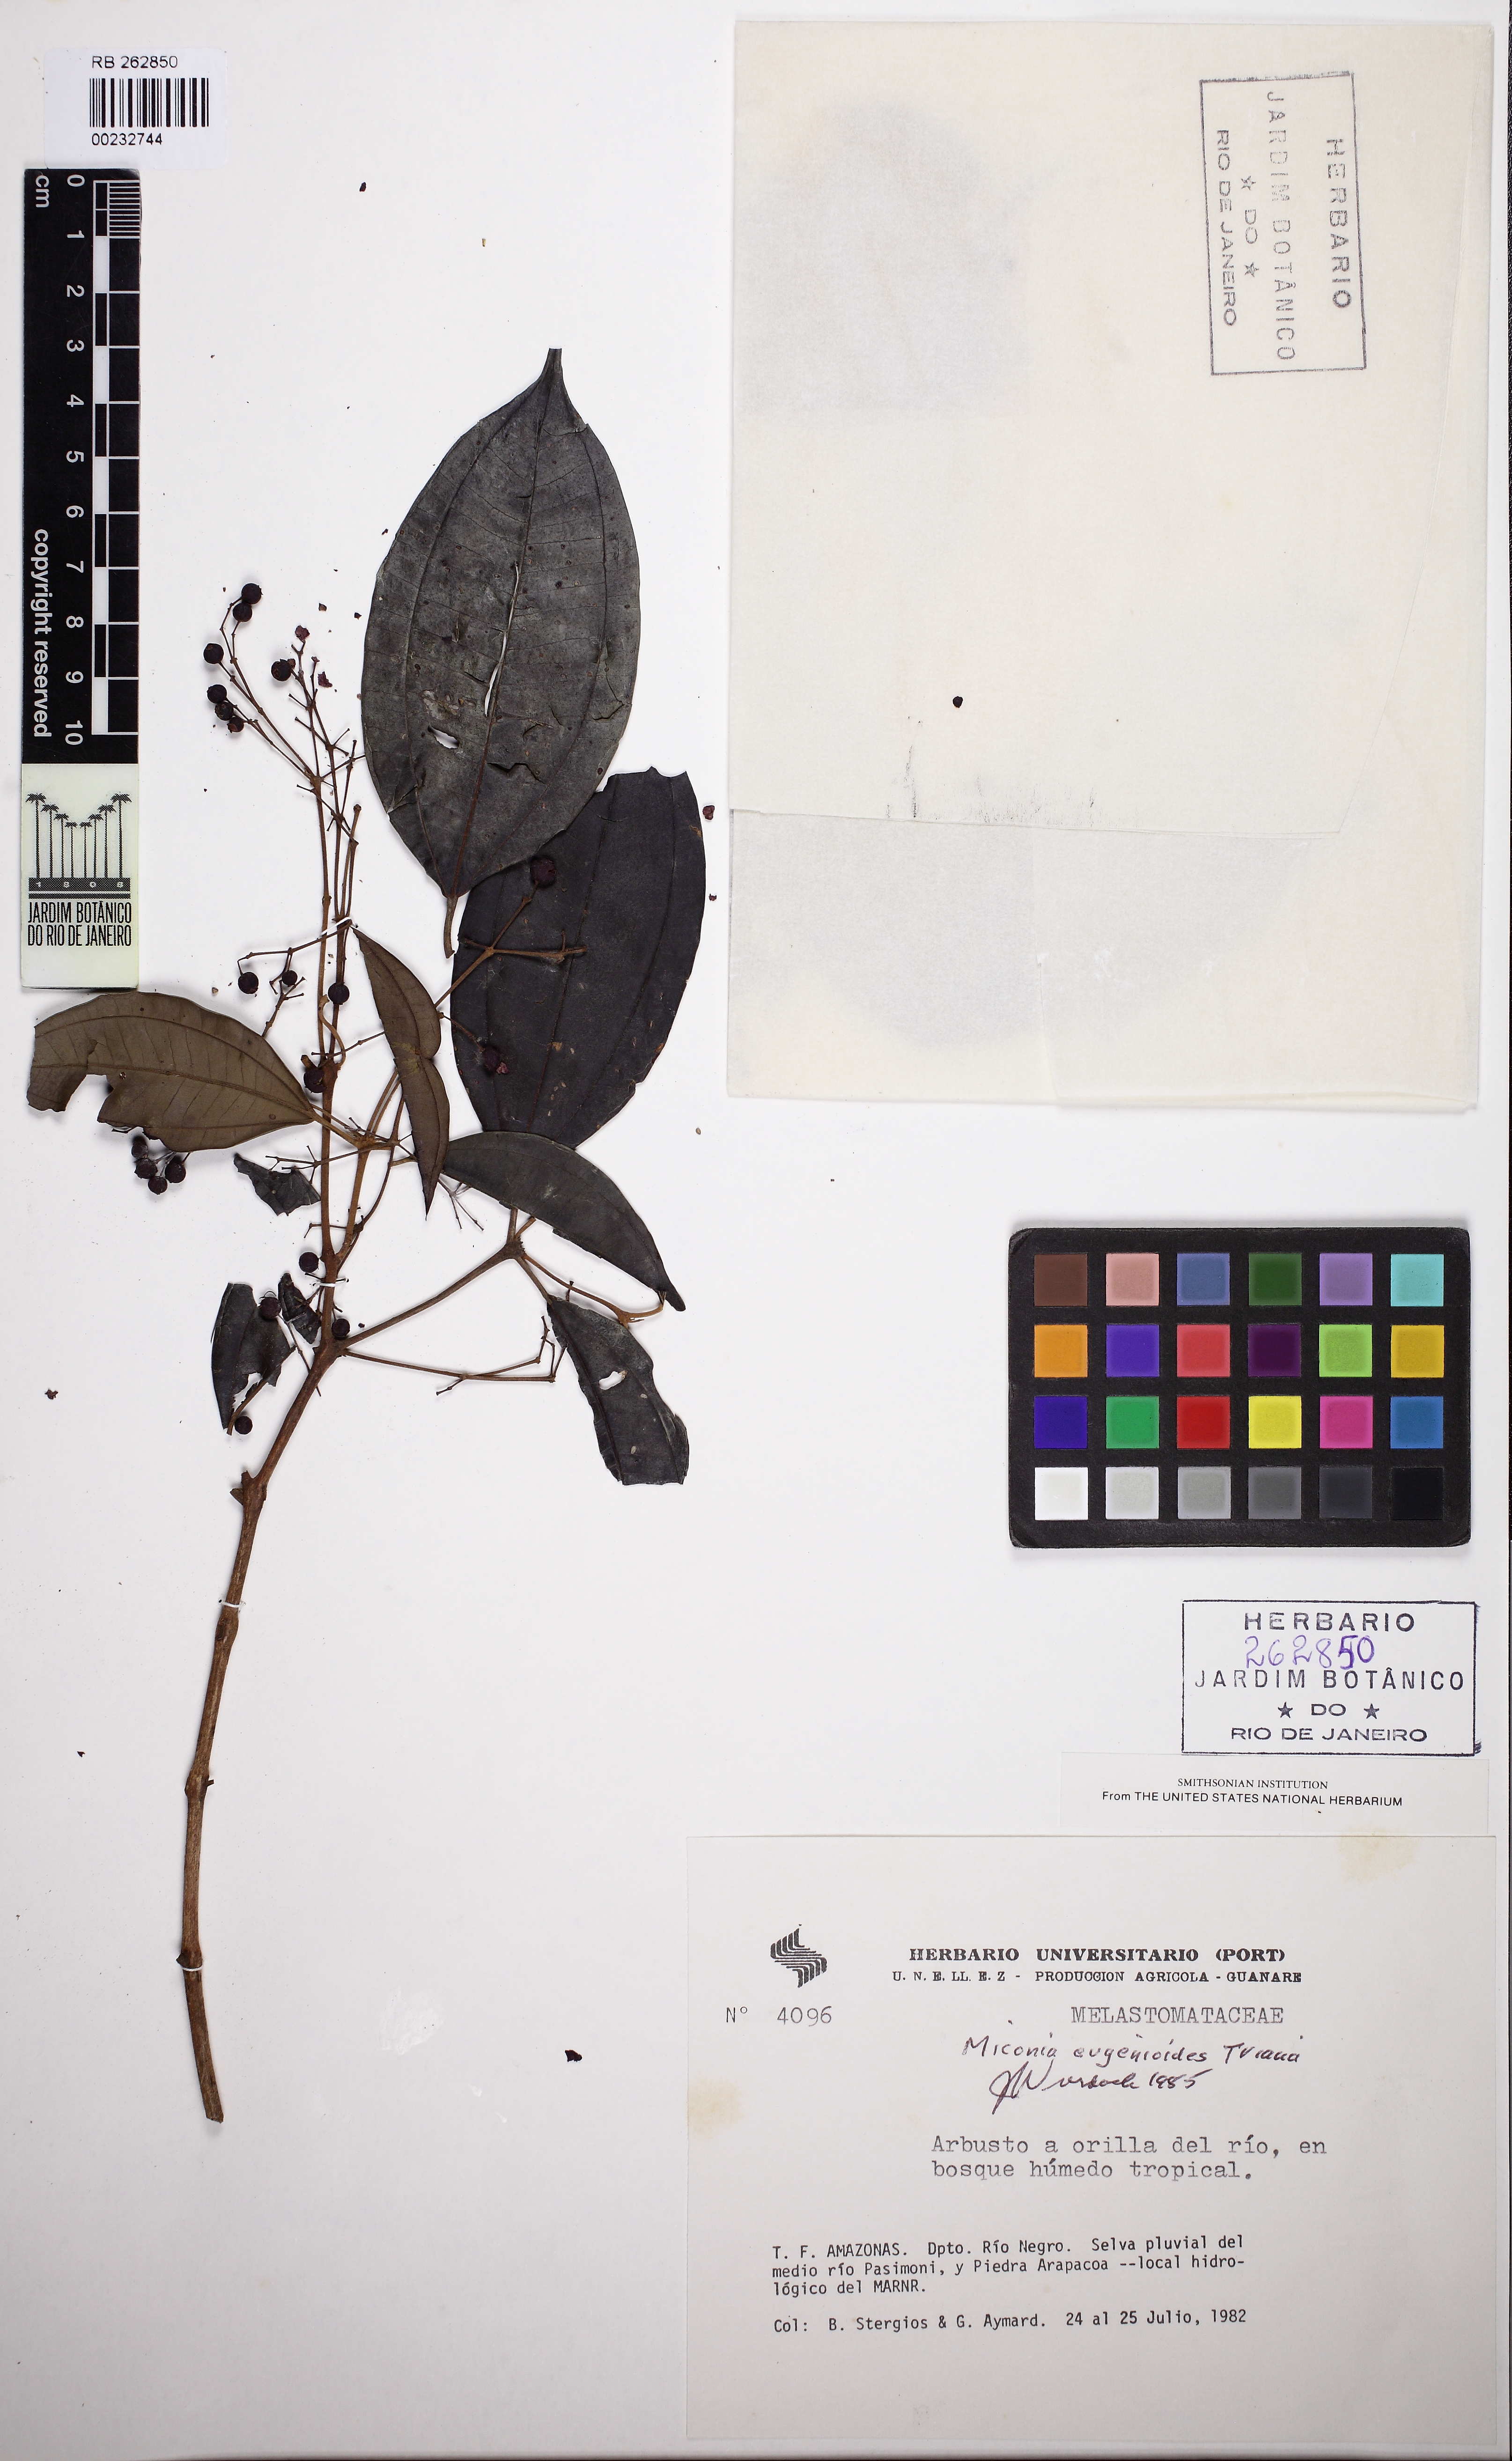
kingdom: Plantae
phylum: Tracheophyta
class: Magnoliopsida
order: Myrtales
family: Melastomataceae
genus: Miconia
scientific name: Miconia eugenioides
